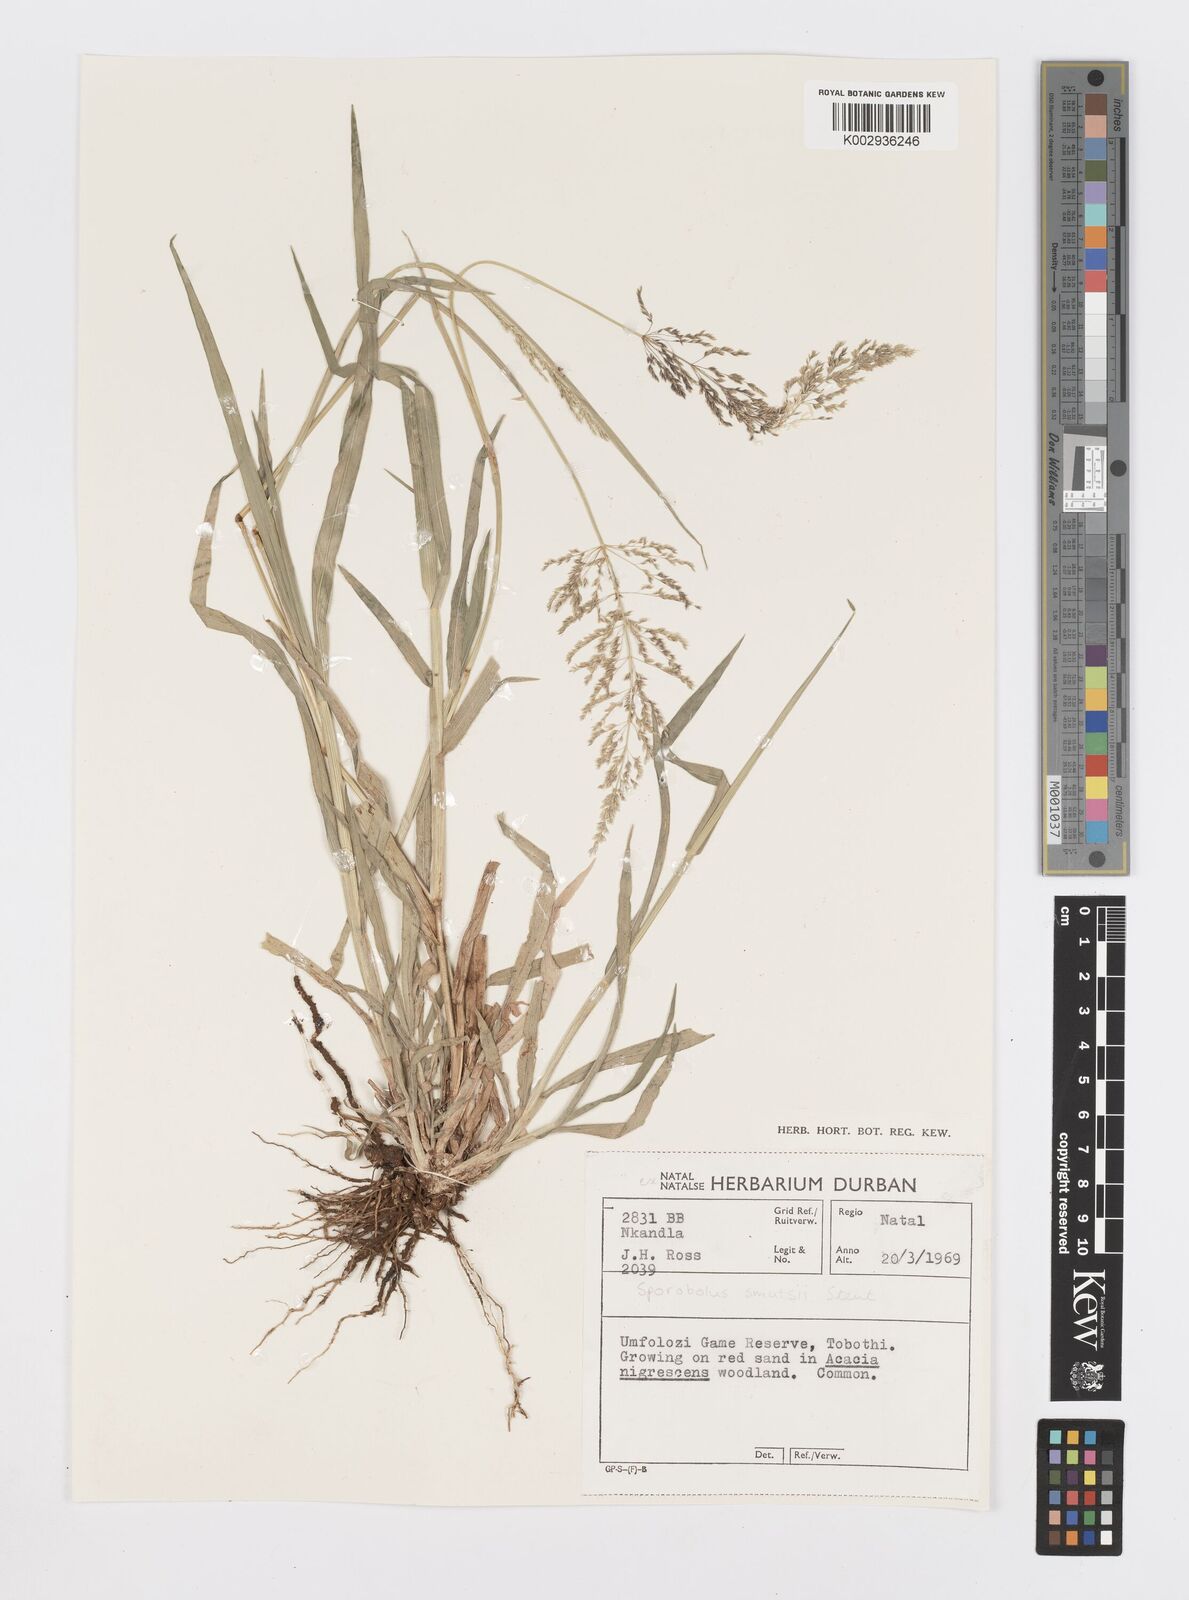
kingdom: Plantae
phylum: Tracheophyta
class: Liliopsida
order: Poales
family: Poaceae
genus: Sporobolus
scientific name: Sporobolus ioclados
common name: Pan dropseed
